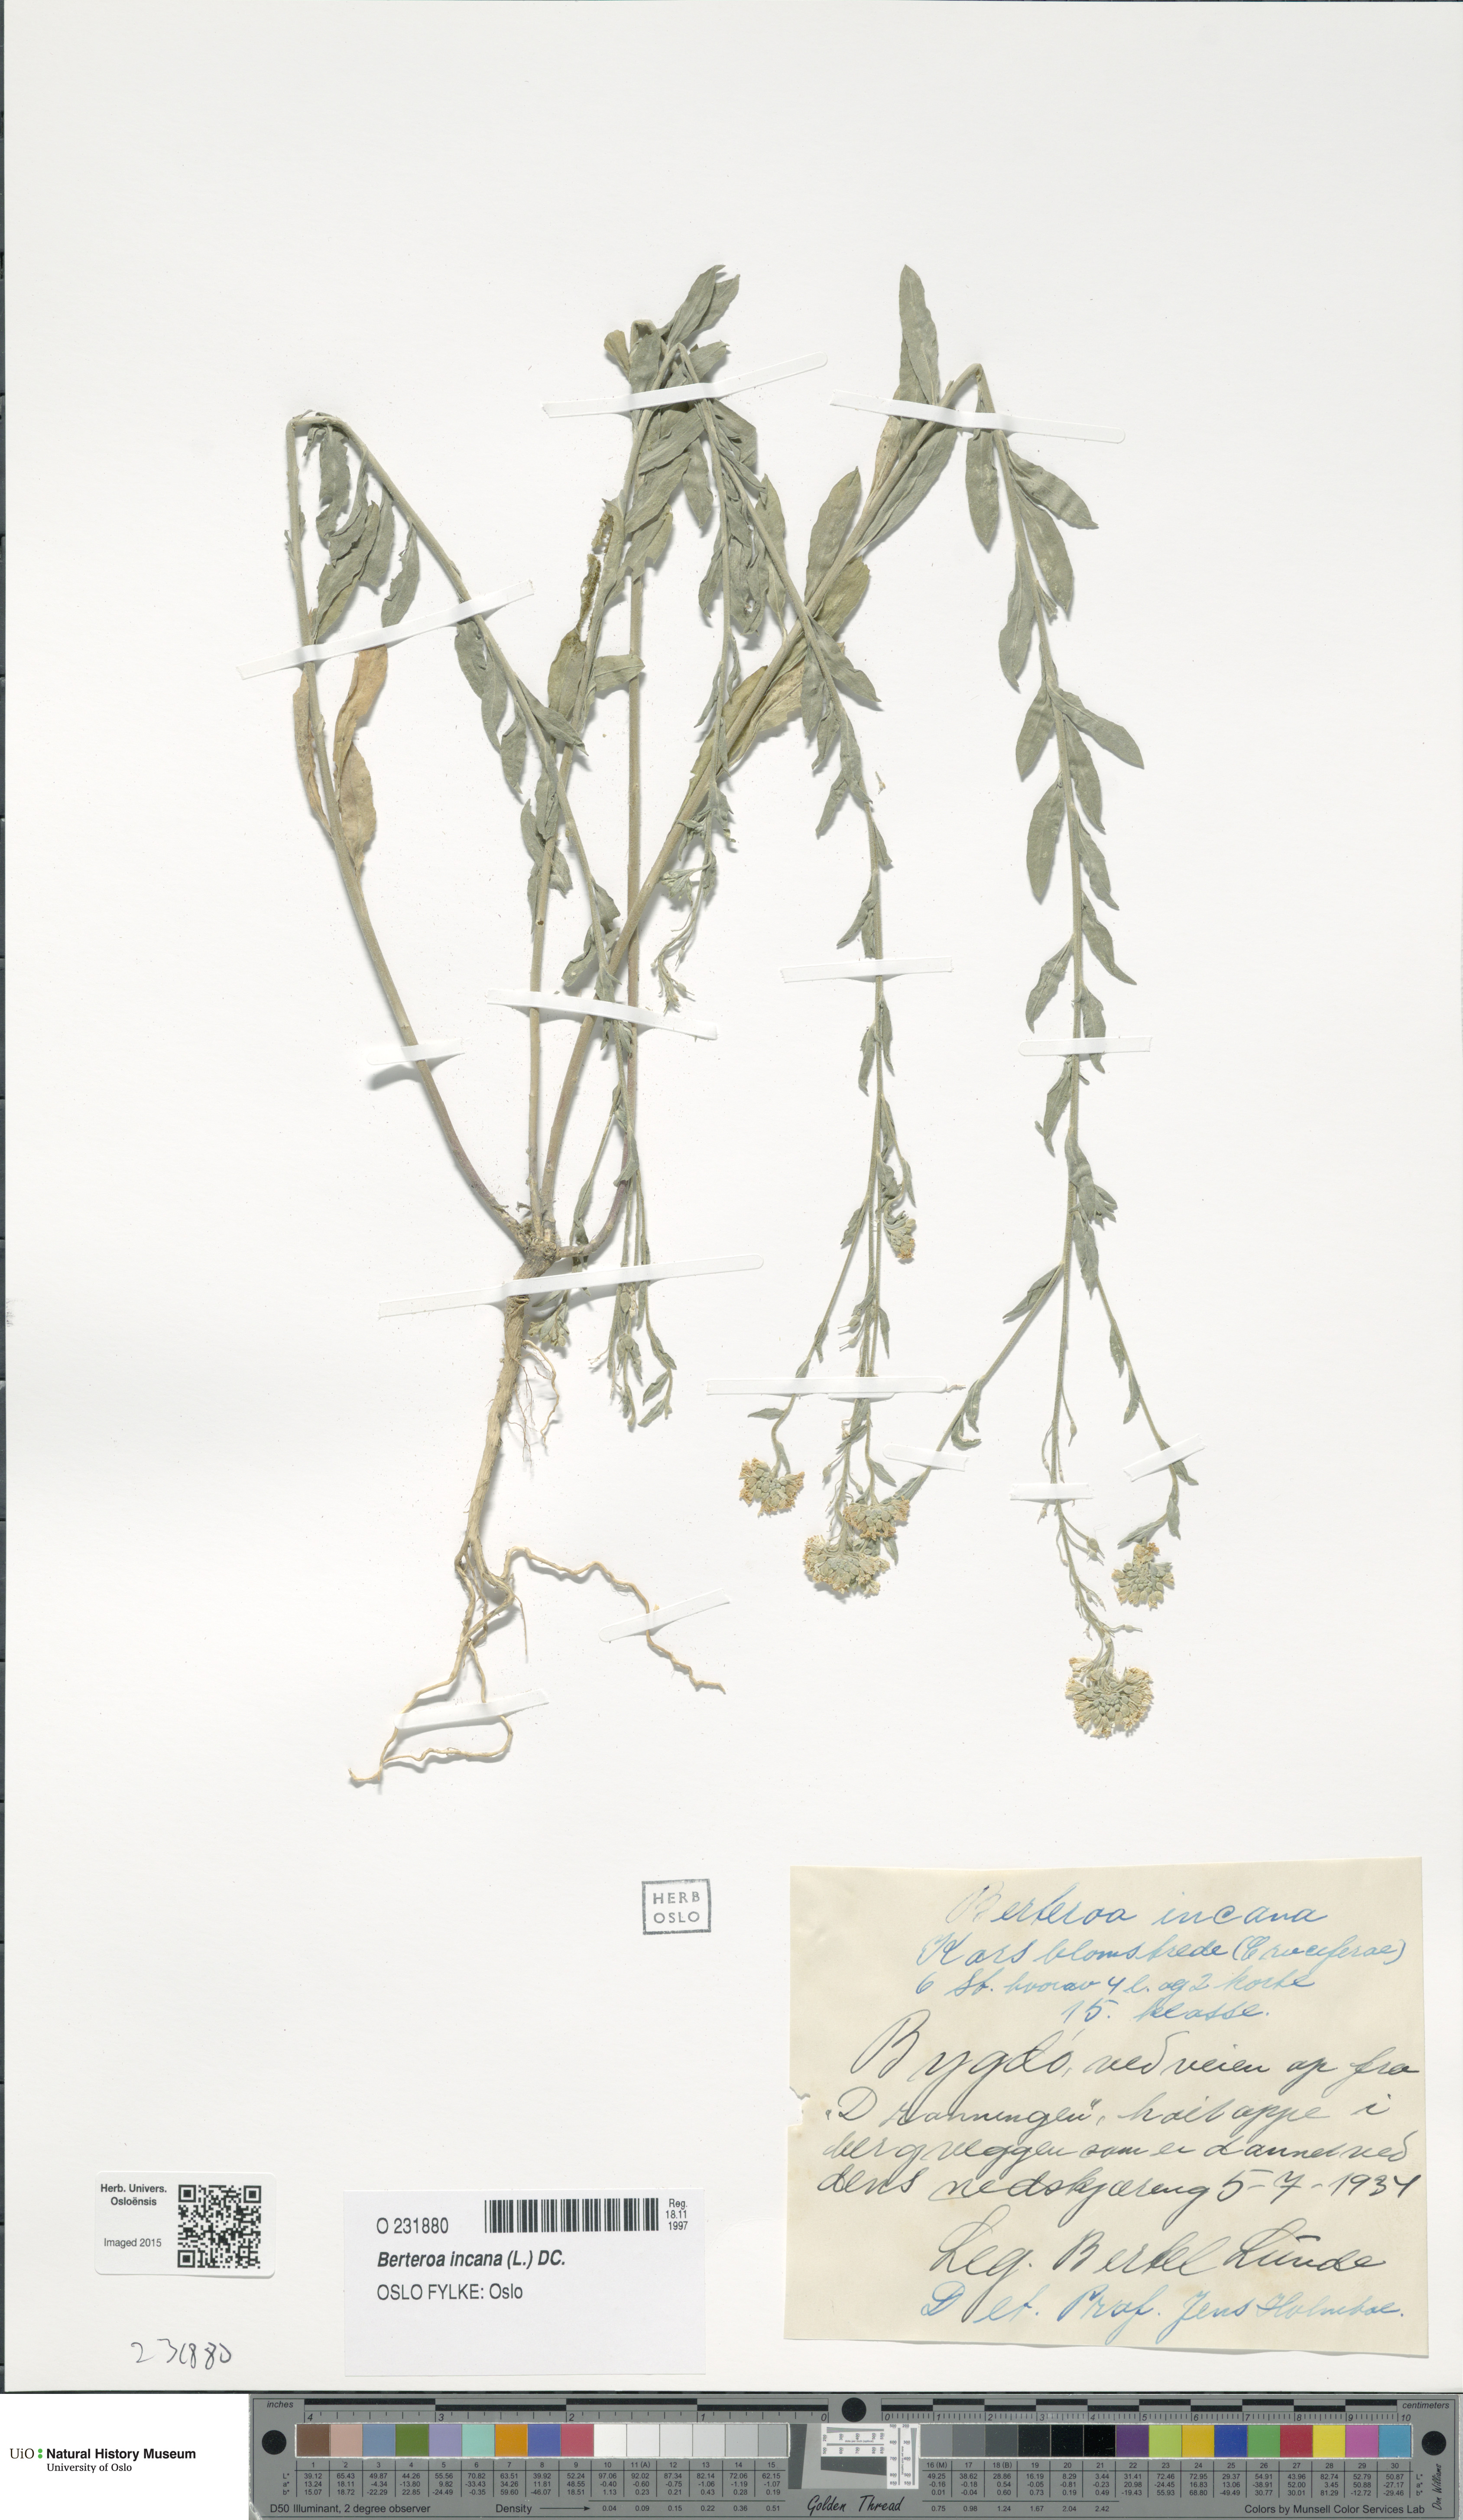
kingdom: Plantae
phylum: Tracheophyta
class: Magnoliopsida
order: Brassicales
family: Brassicaceae
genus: Berteroa
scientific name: Berteroa incana
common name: Hoary alison
